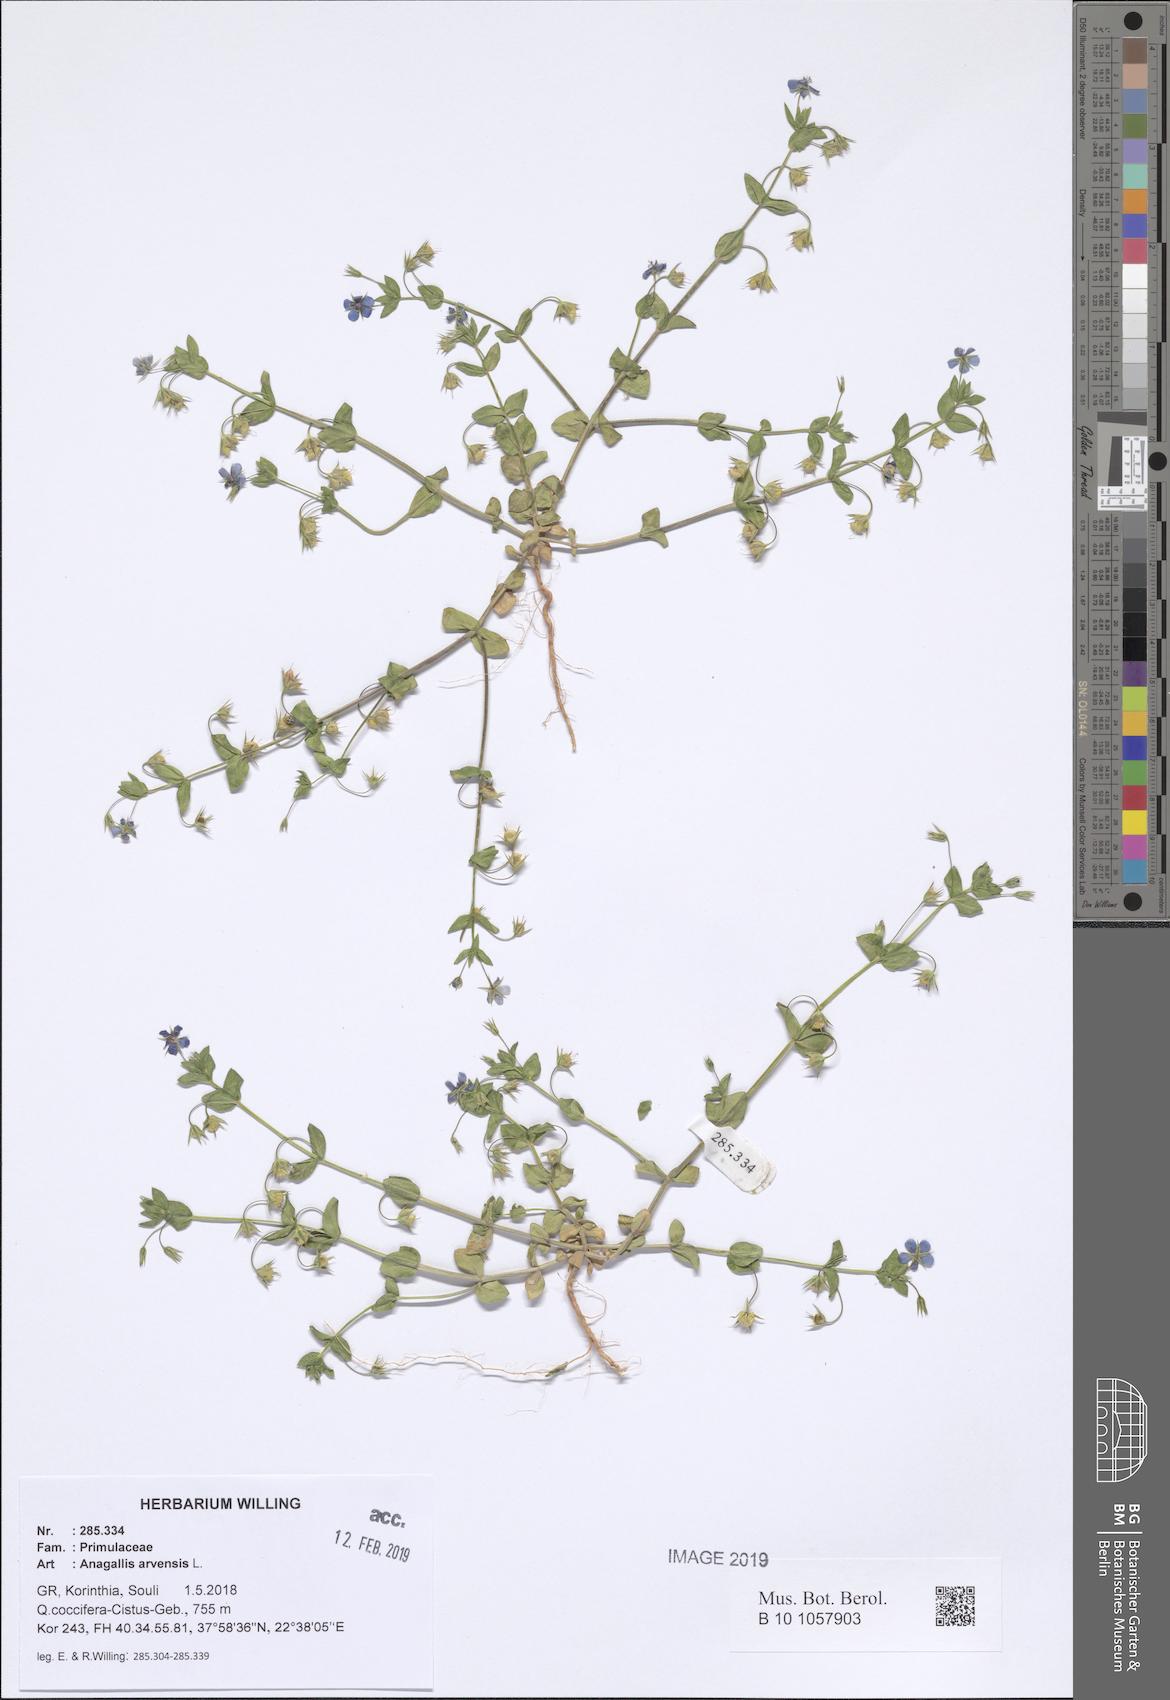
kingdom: Plantae
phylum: Tracheophyta
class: Magnoliopsida
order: Ericales
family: Primulaceae
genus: Lysimachia
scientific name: Lysimachia arvensis
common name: Scarlet pimpernel
